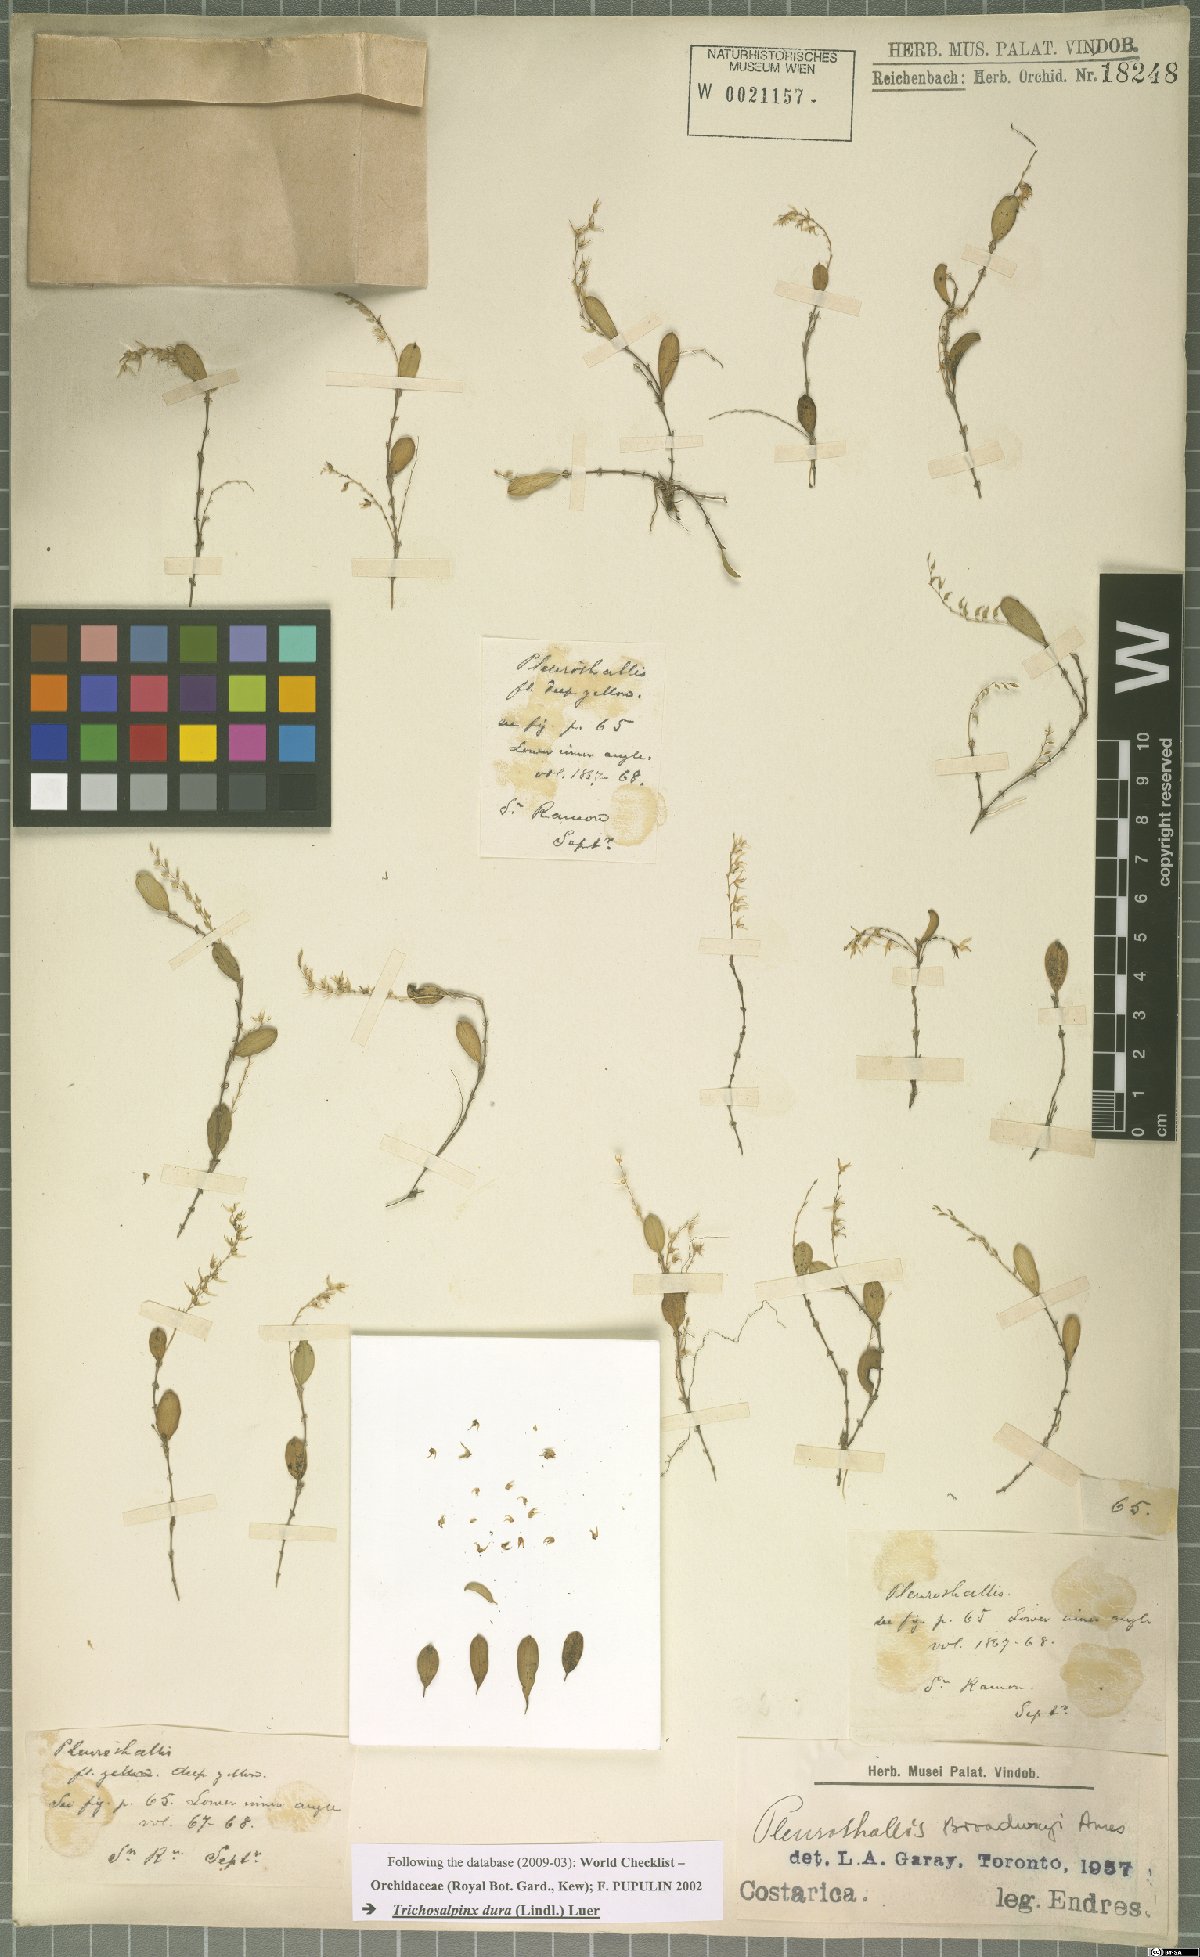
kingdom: Plantae
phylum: Tracheophyta
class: Liliopsida
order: Asparagales
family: Orchidaceae
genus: Trichosalpinx
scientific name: Trichosalpinx dura
